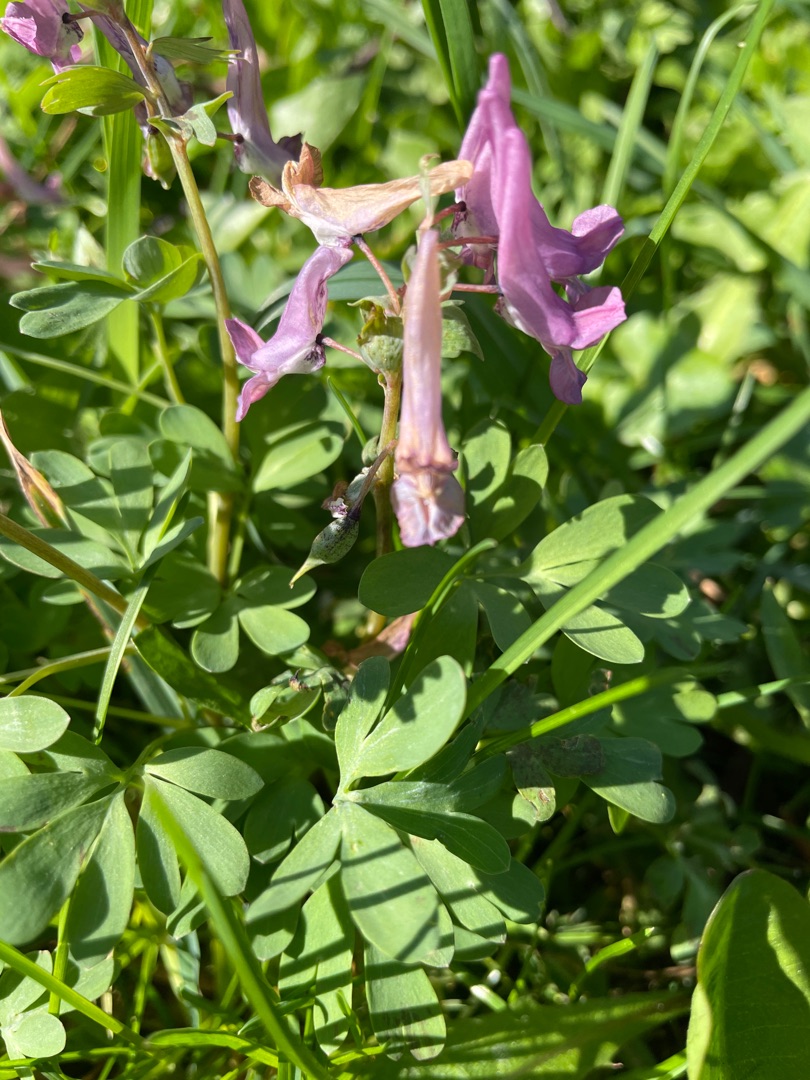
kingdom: Plantae
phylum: Tracheophyta
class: Magnoliopsida
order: Ranunculales
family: Papaveraceae
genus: Corydalis
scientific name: Corydalis solida
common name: Langstilket lærkespore
